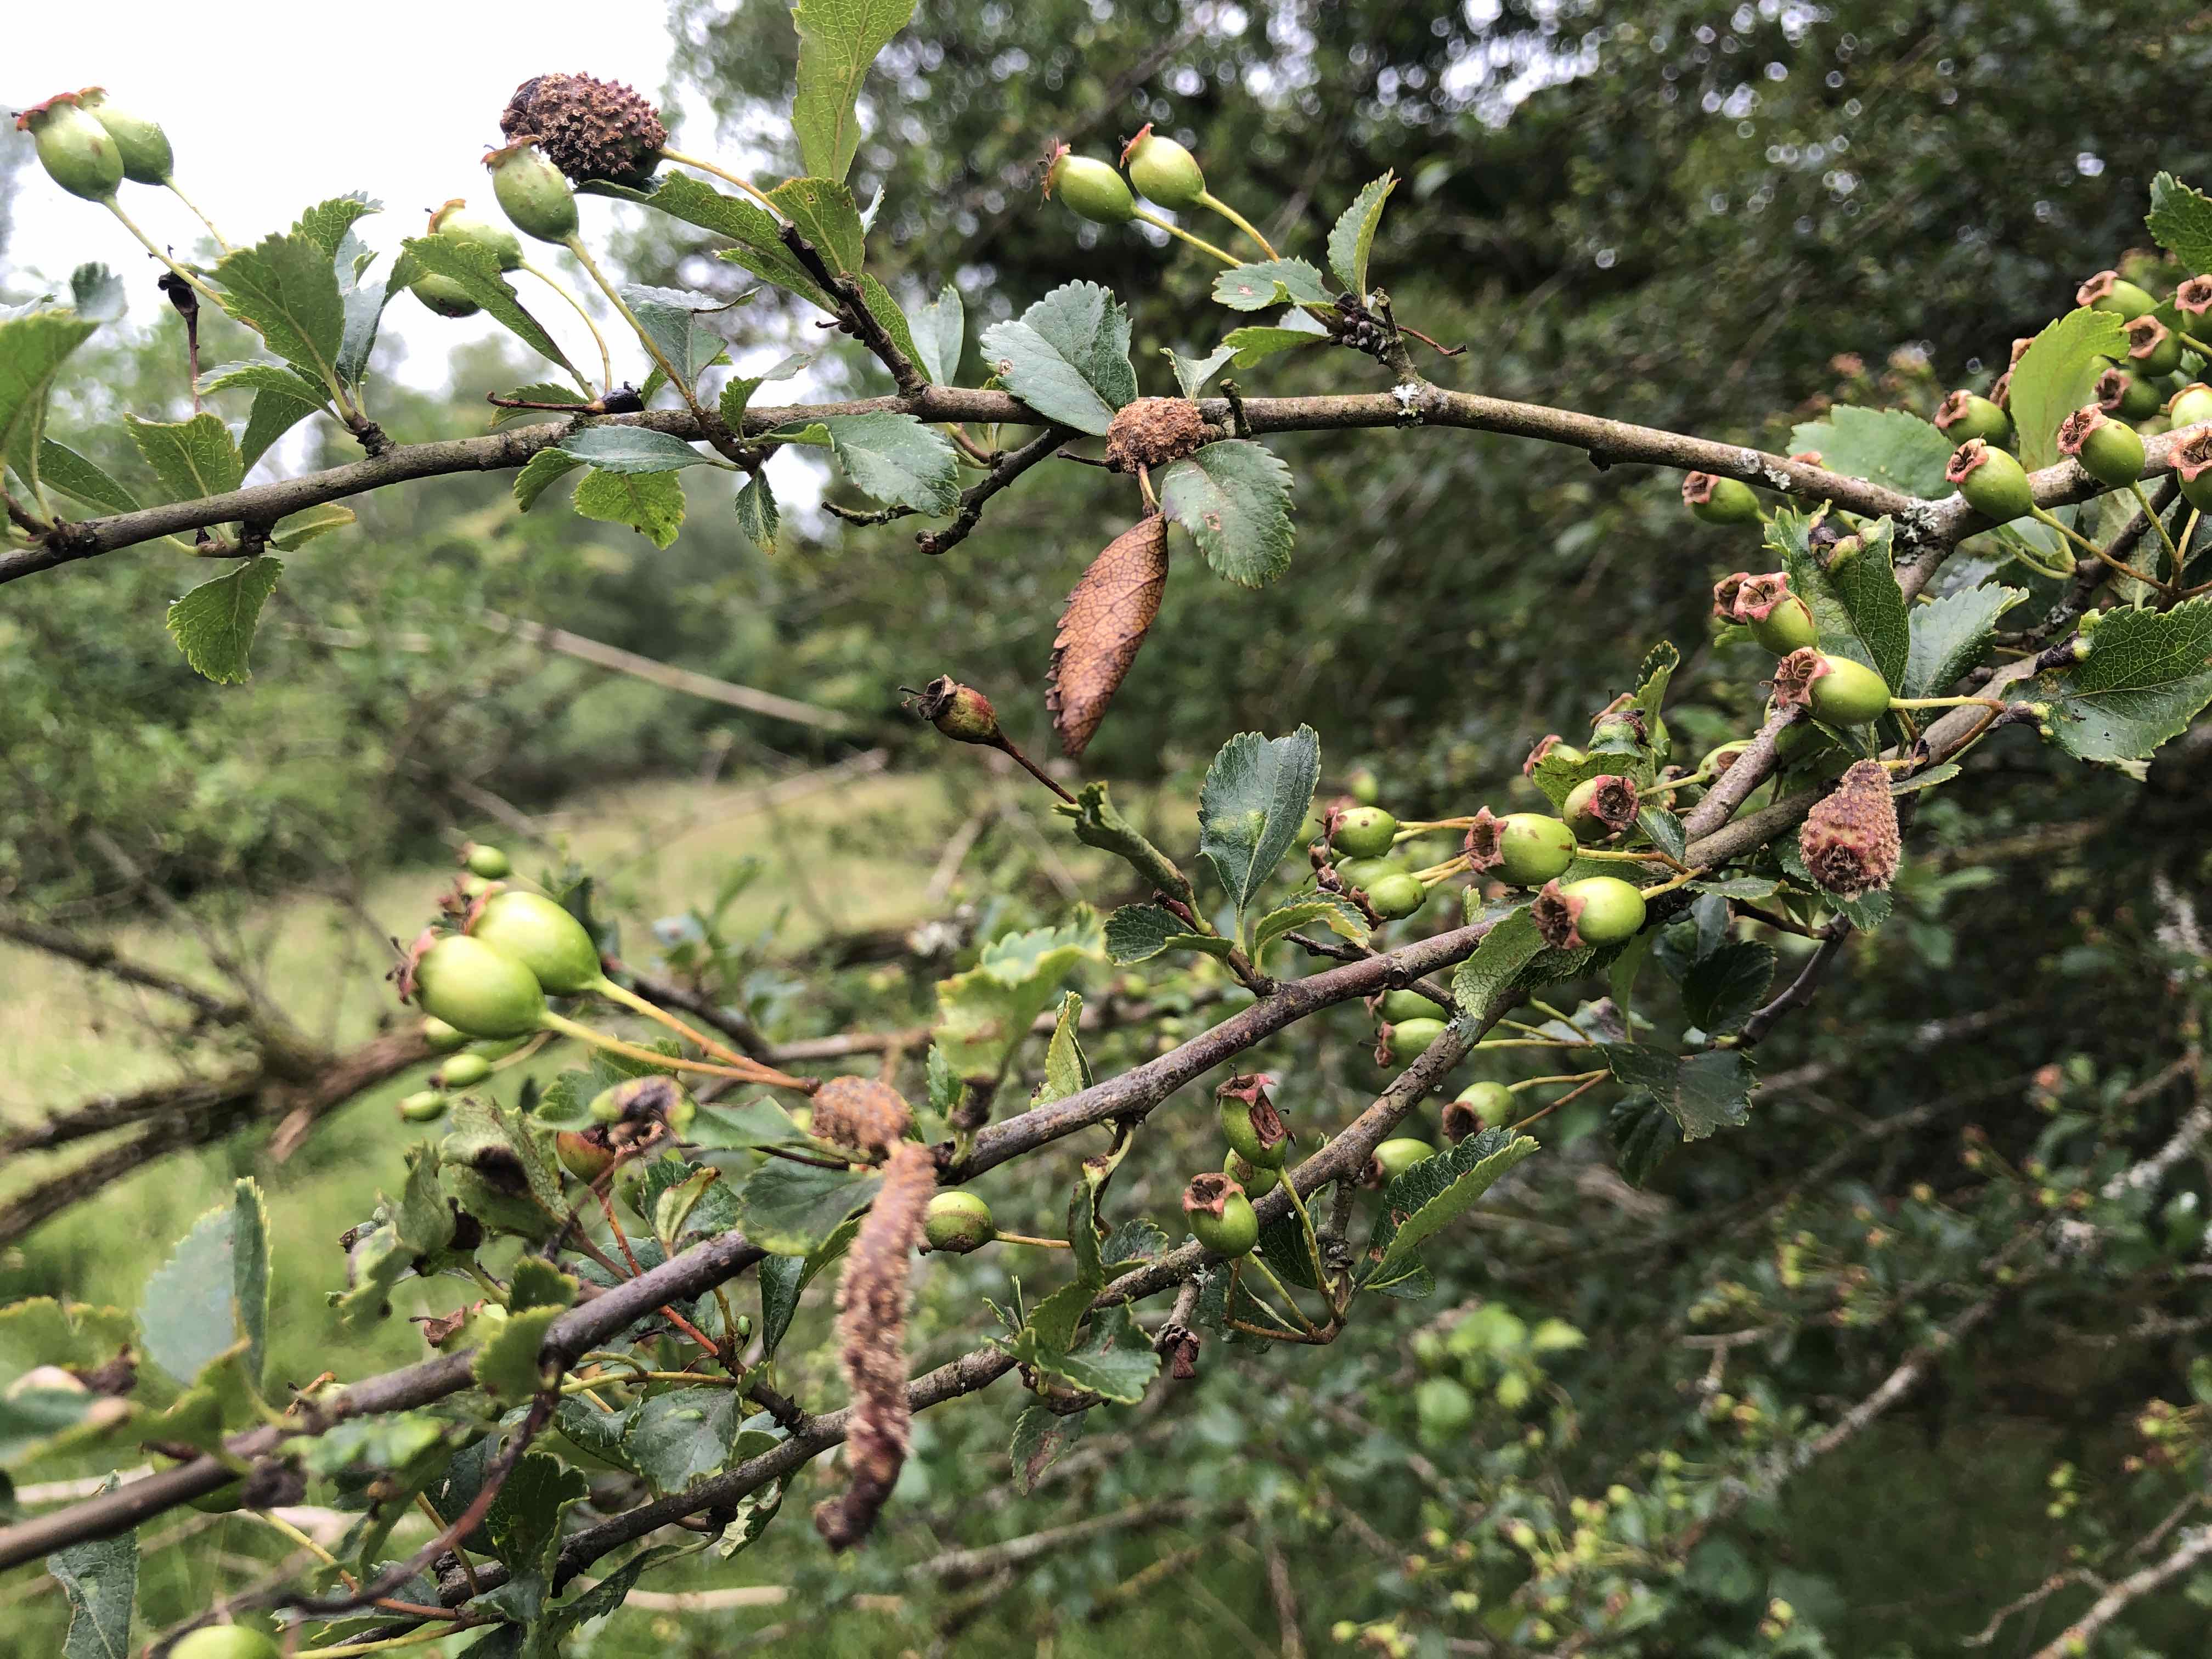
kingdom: Fungi
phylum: Basidiomycota
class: Pucciniomycetes
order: Pucciniales
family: Gymnosporangiaceae
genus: Gymnosporangium
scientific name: Gymnosporangium
